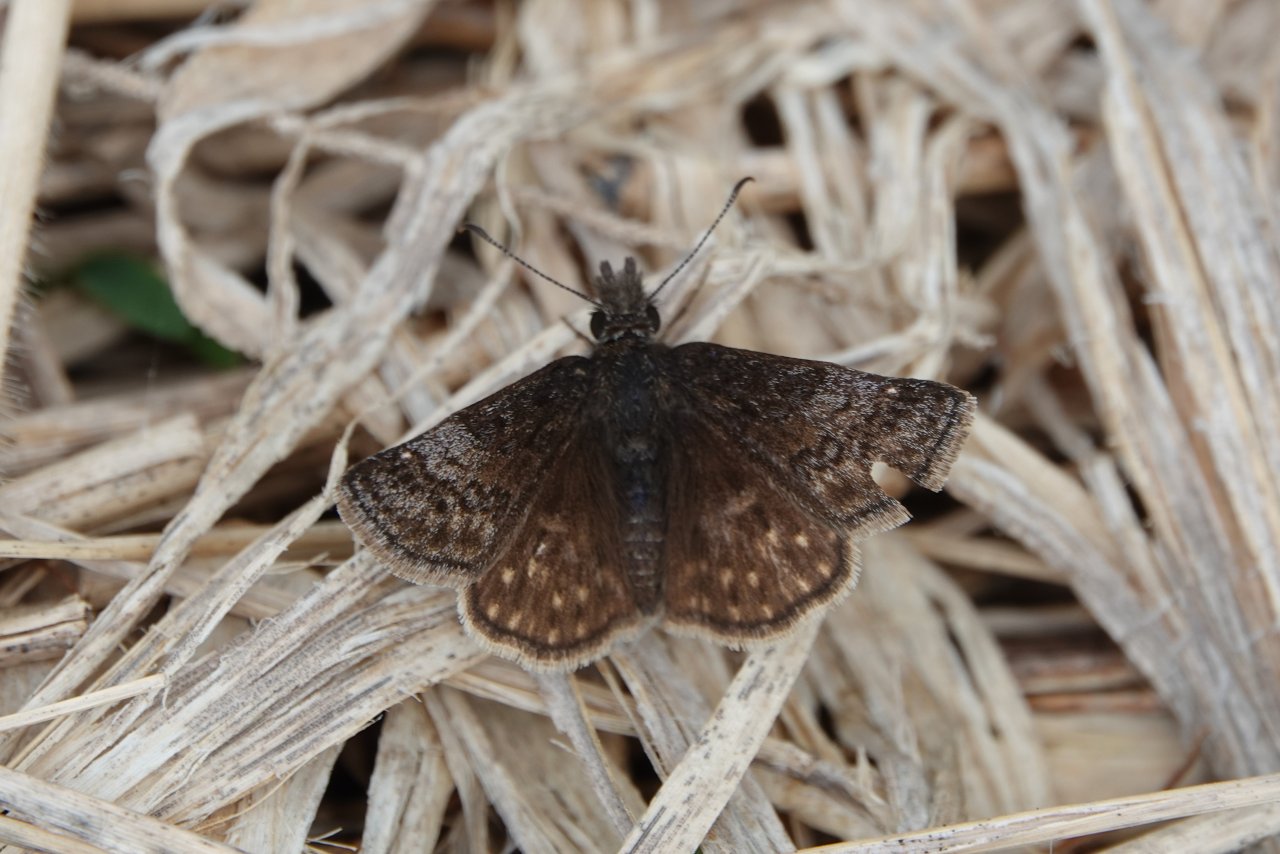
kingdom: Animalia
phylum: Arthropoda
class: Insecta
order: Lepidoptera
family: Hesperiidae
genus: Erynnis
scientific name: Erynnis icelus
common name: Dreamy Duskywing
